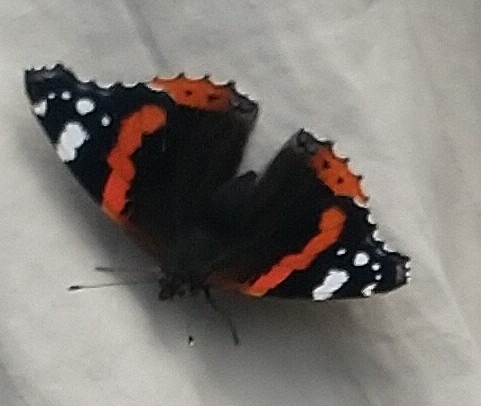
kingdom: Animalia
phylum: Arthropoda
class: Insecta
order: Lepidoptera
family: Nymphalidae
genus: Vanessa
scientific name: Vanessa atalanta
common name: Admiral
